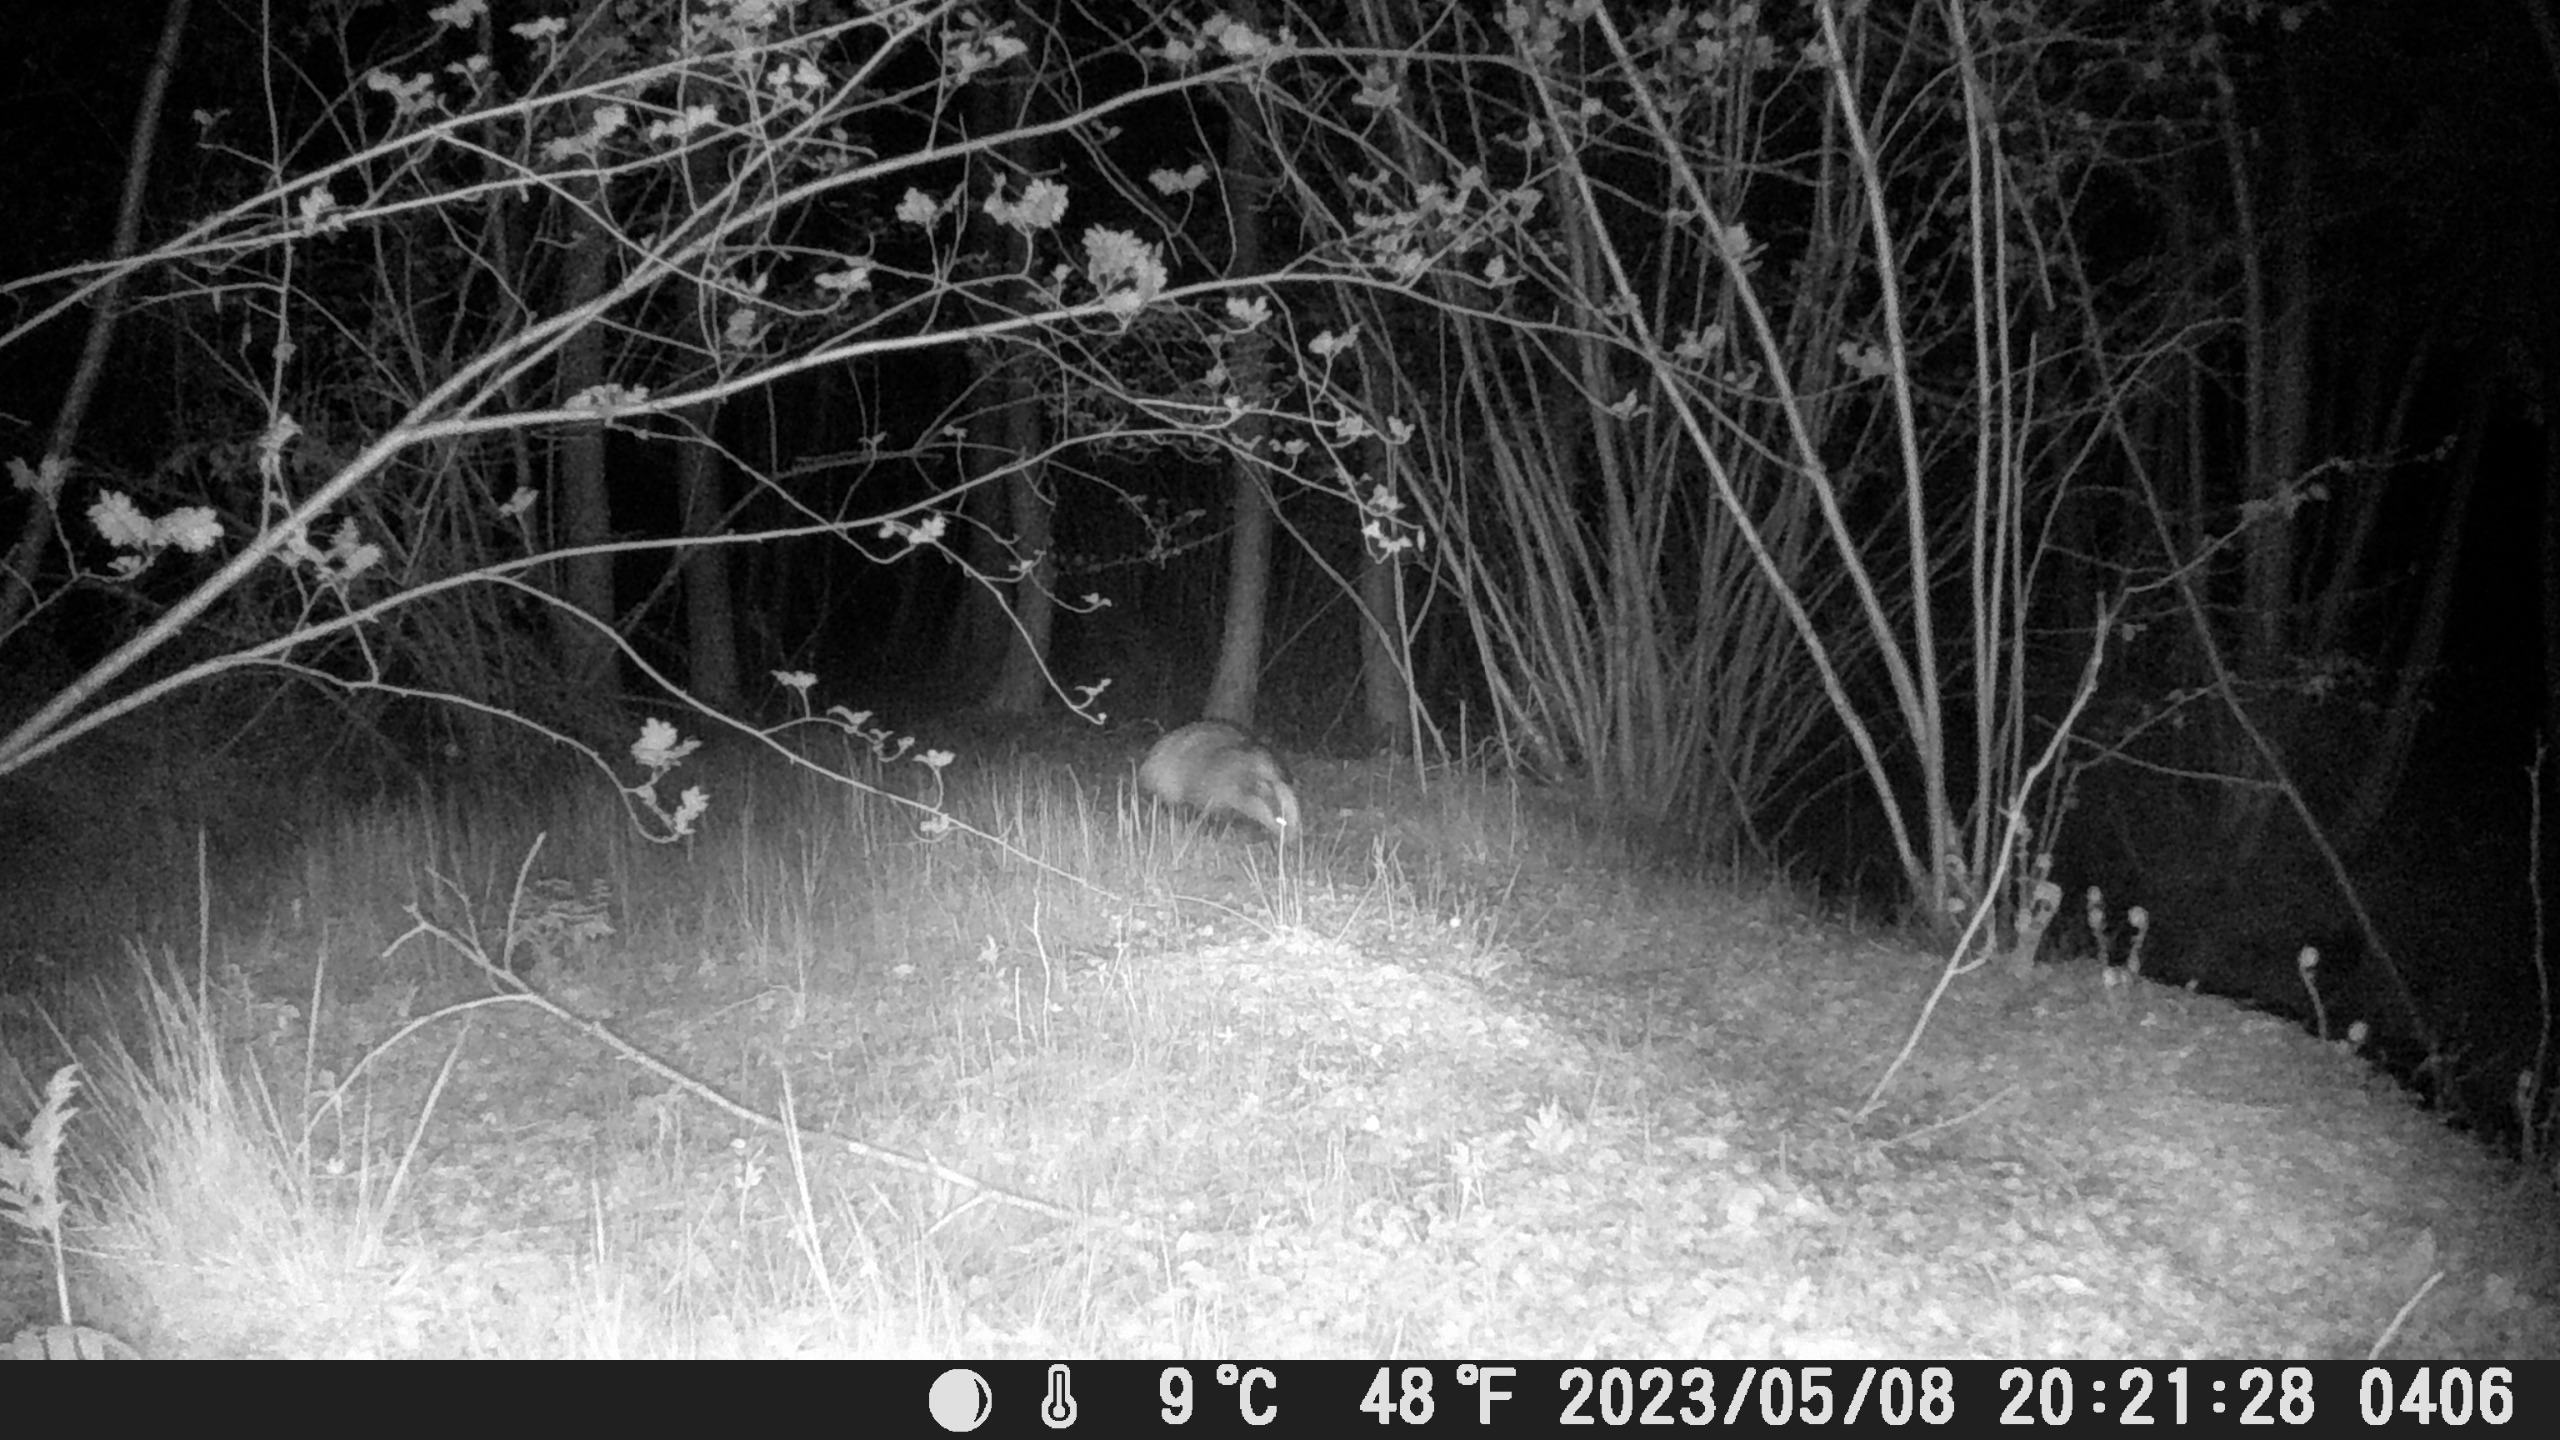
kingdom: Animalia
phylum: Chordata
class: Mammalia
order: Carnivora
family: Mustelidae
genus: Meles
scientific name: Meles meles
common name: Grævling
